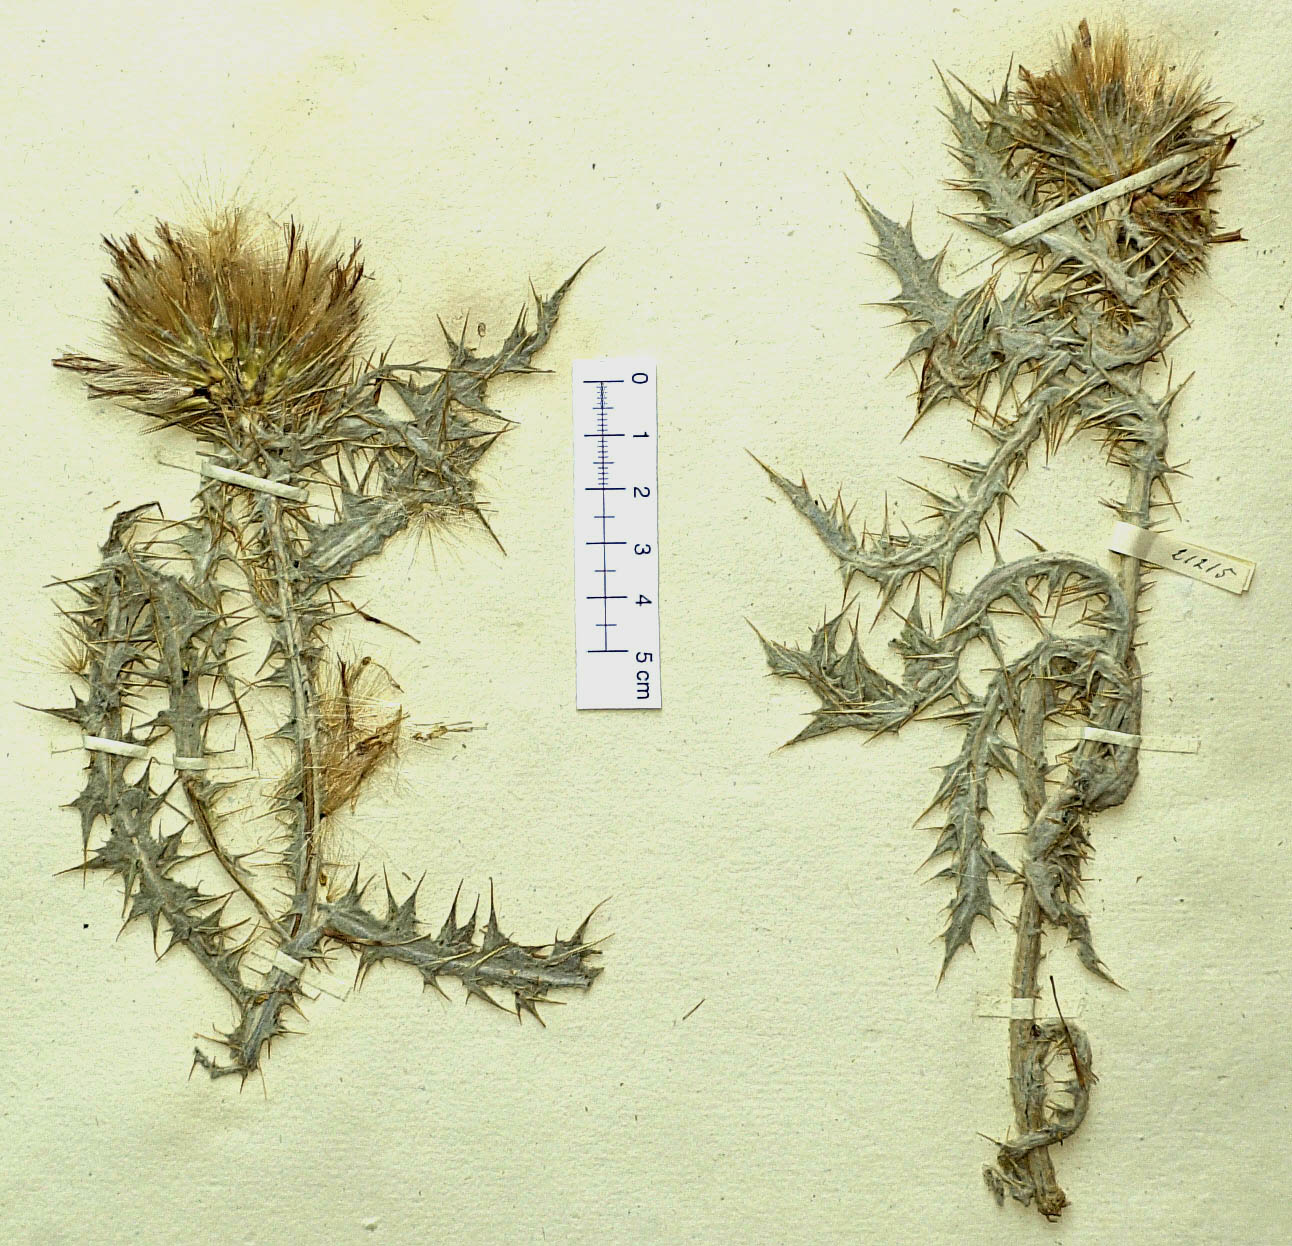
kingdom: Plantae
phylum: Tracheophyta
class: Magnoliopsida
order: Asterales
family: Asteraceae
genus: Carduus
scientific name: Carduus lanuginosus
